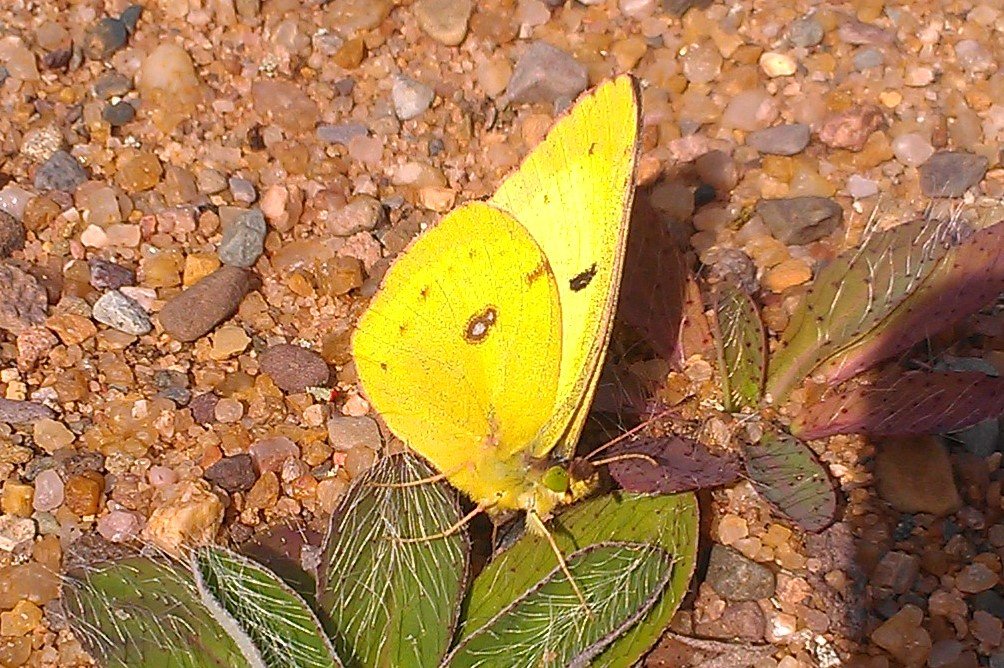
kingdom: Animalia
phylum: Arthropoda
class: Insecta
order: Lepidoptera
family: Pieridae
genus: Colias
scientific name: Colias philodice
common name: Clouded Sulphur
